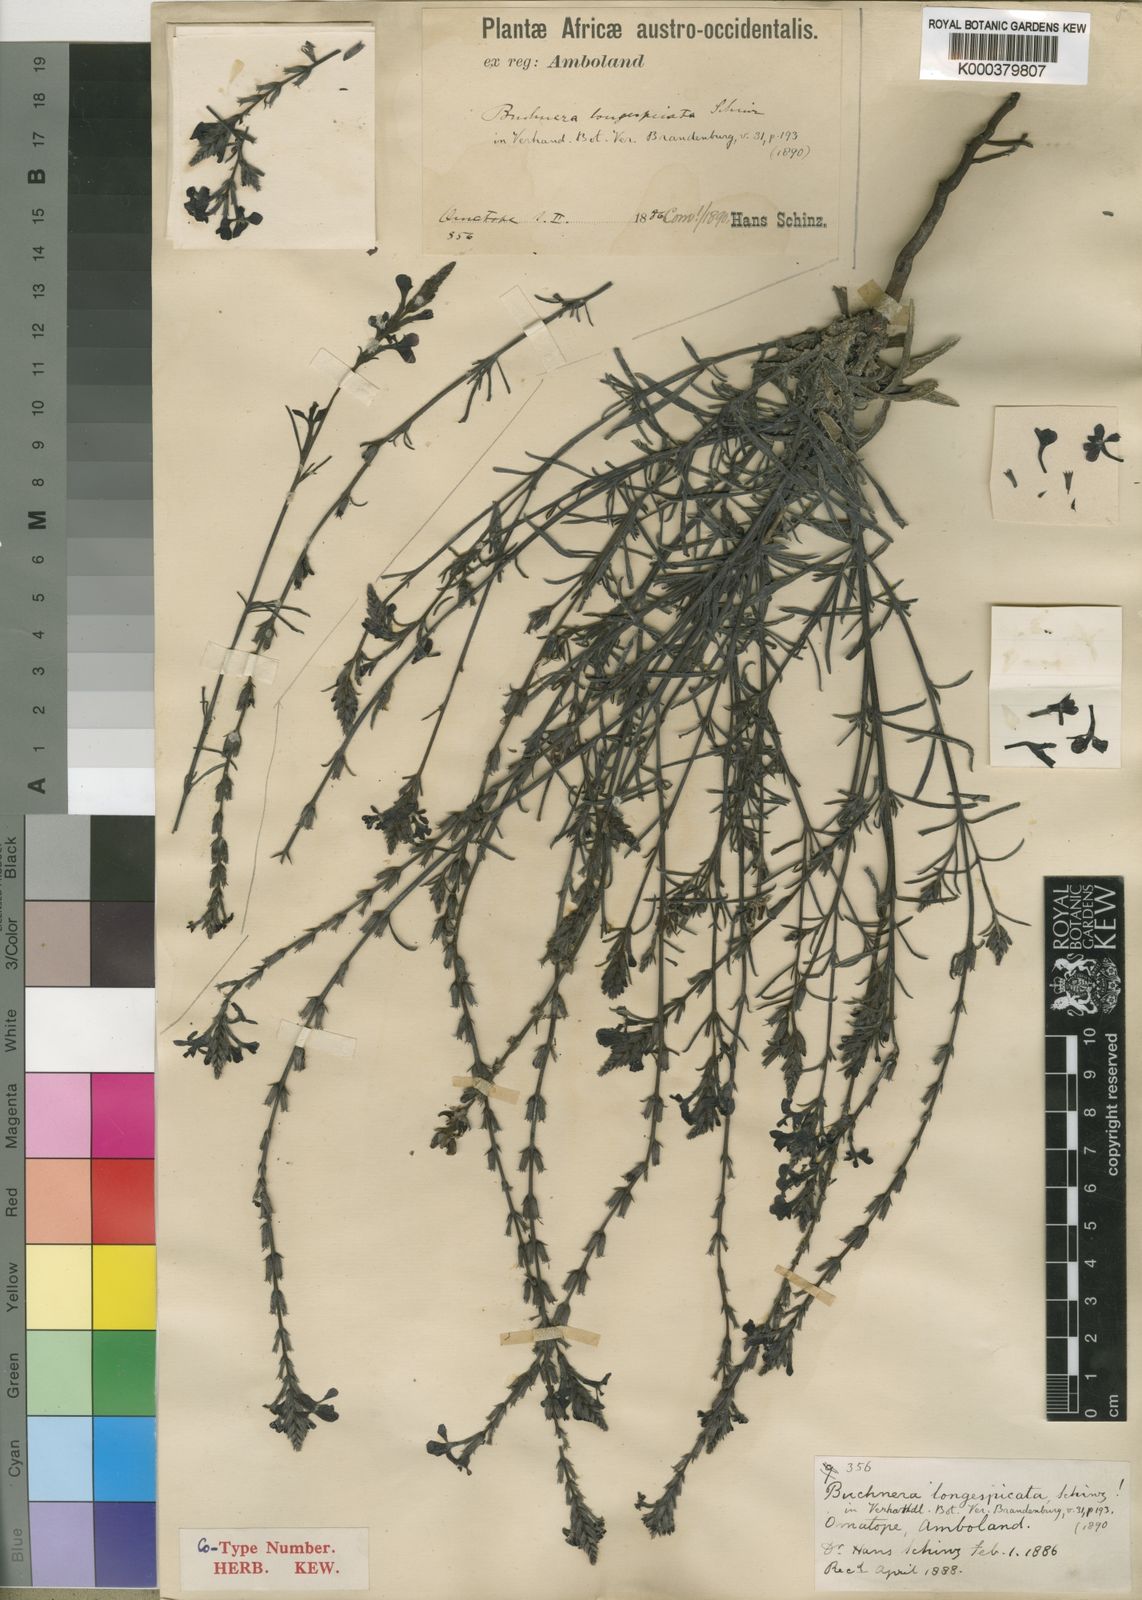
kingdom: Plantae
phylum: Tracheophyta
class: Magnoliopsida
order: Lamiales
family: Orobanchaceae
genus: Buchnera
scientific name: Buchnera longespicata
